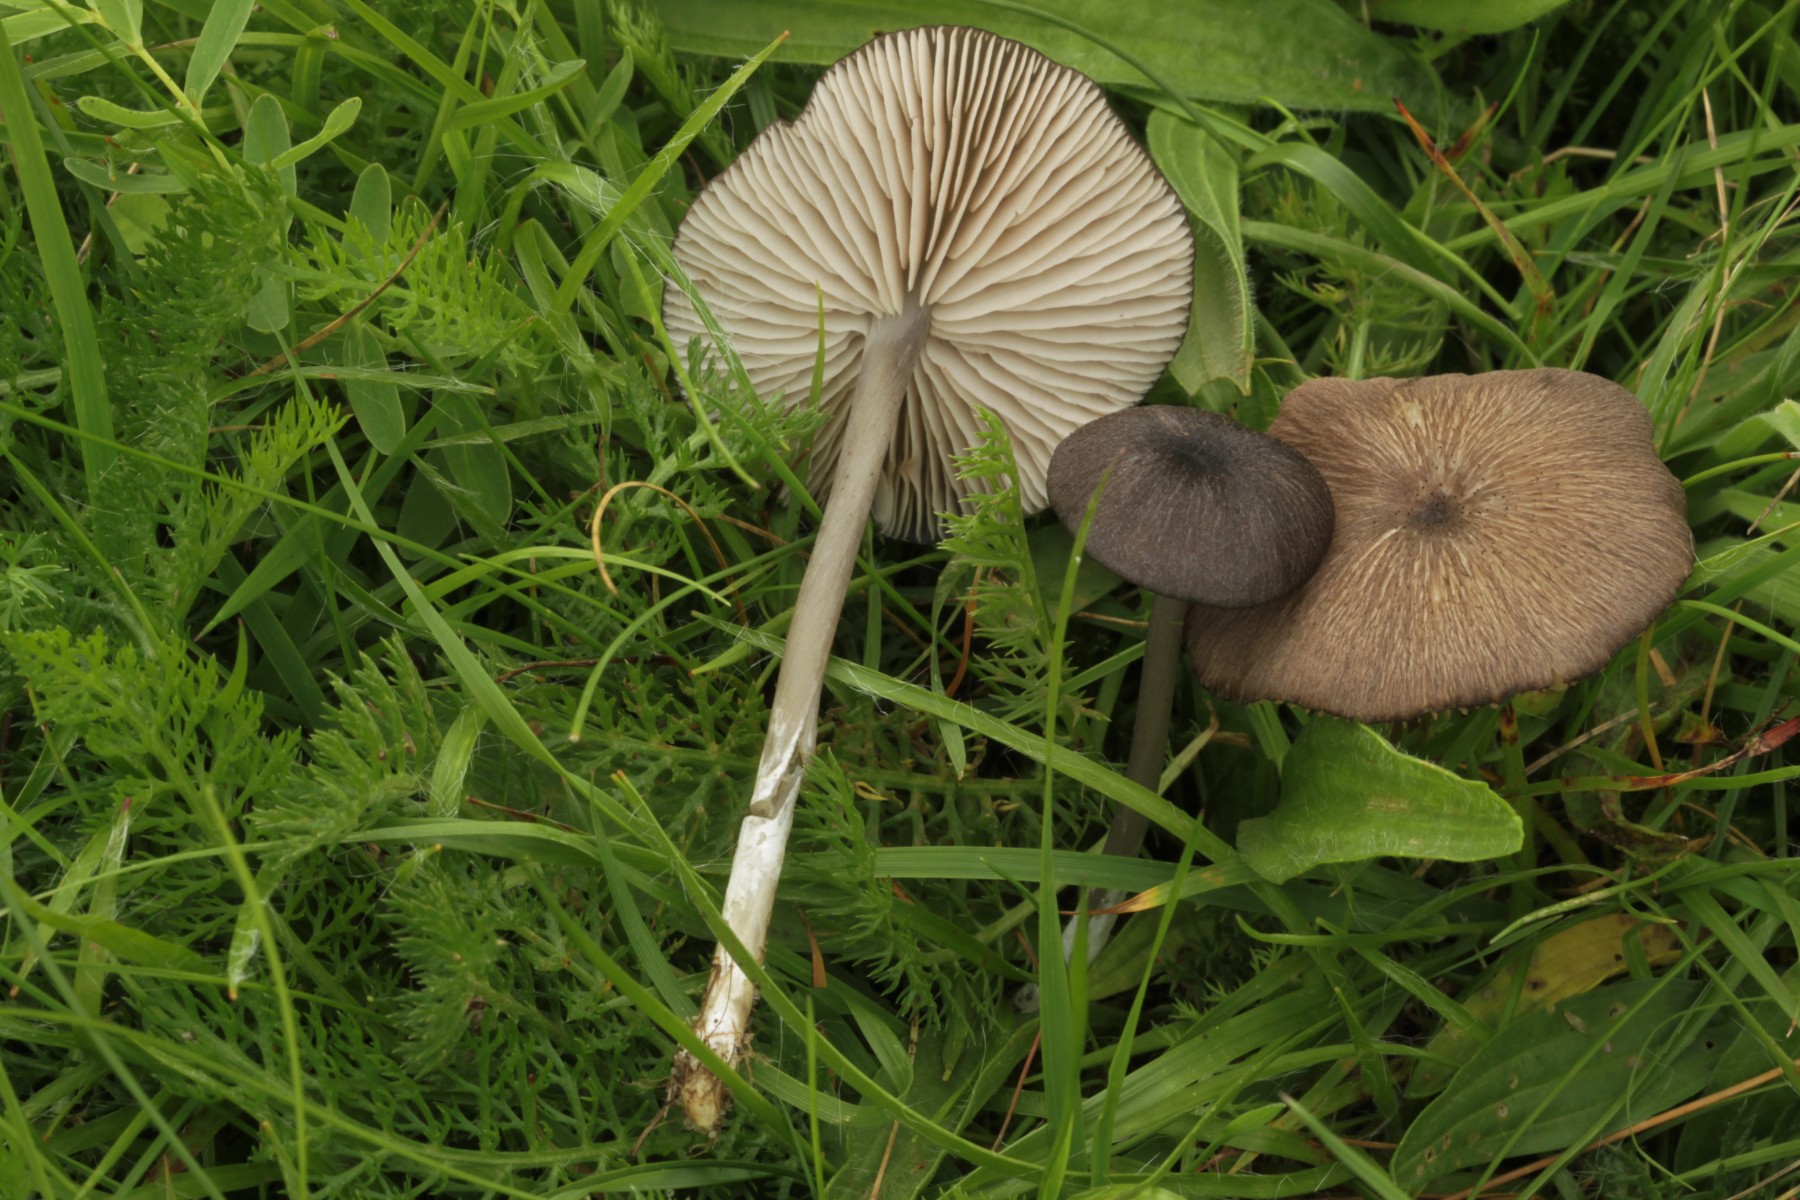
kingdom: Fungi
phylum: Basidiomycota
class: Agaricomycetes
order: Agaricales
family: Entolomataceae
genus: Entoloma
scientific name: Entoloma porphyrogriseum
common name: porfyrgrå rødblad
